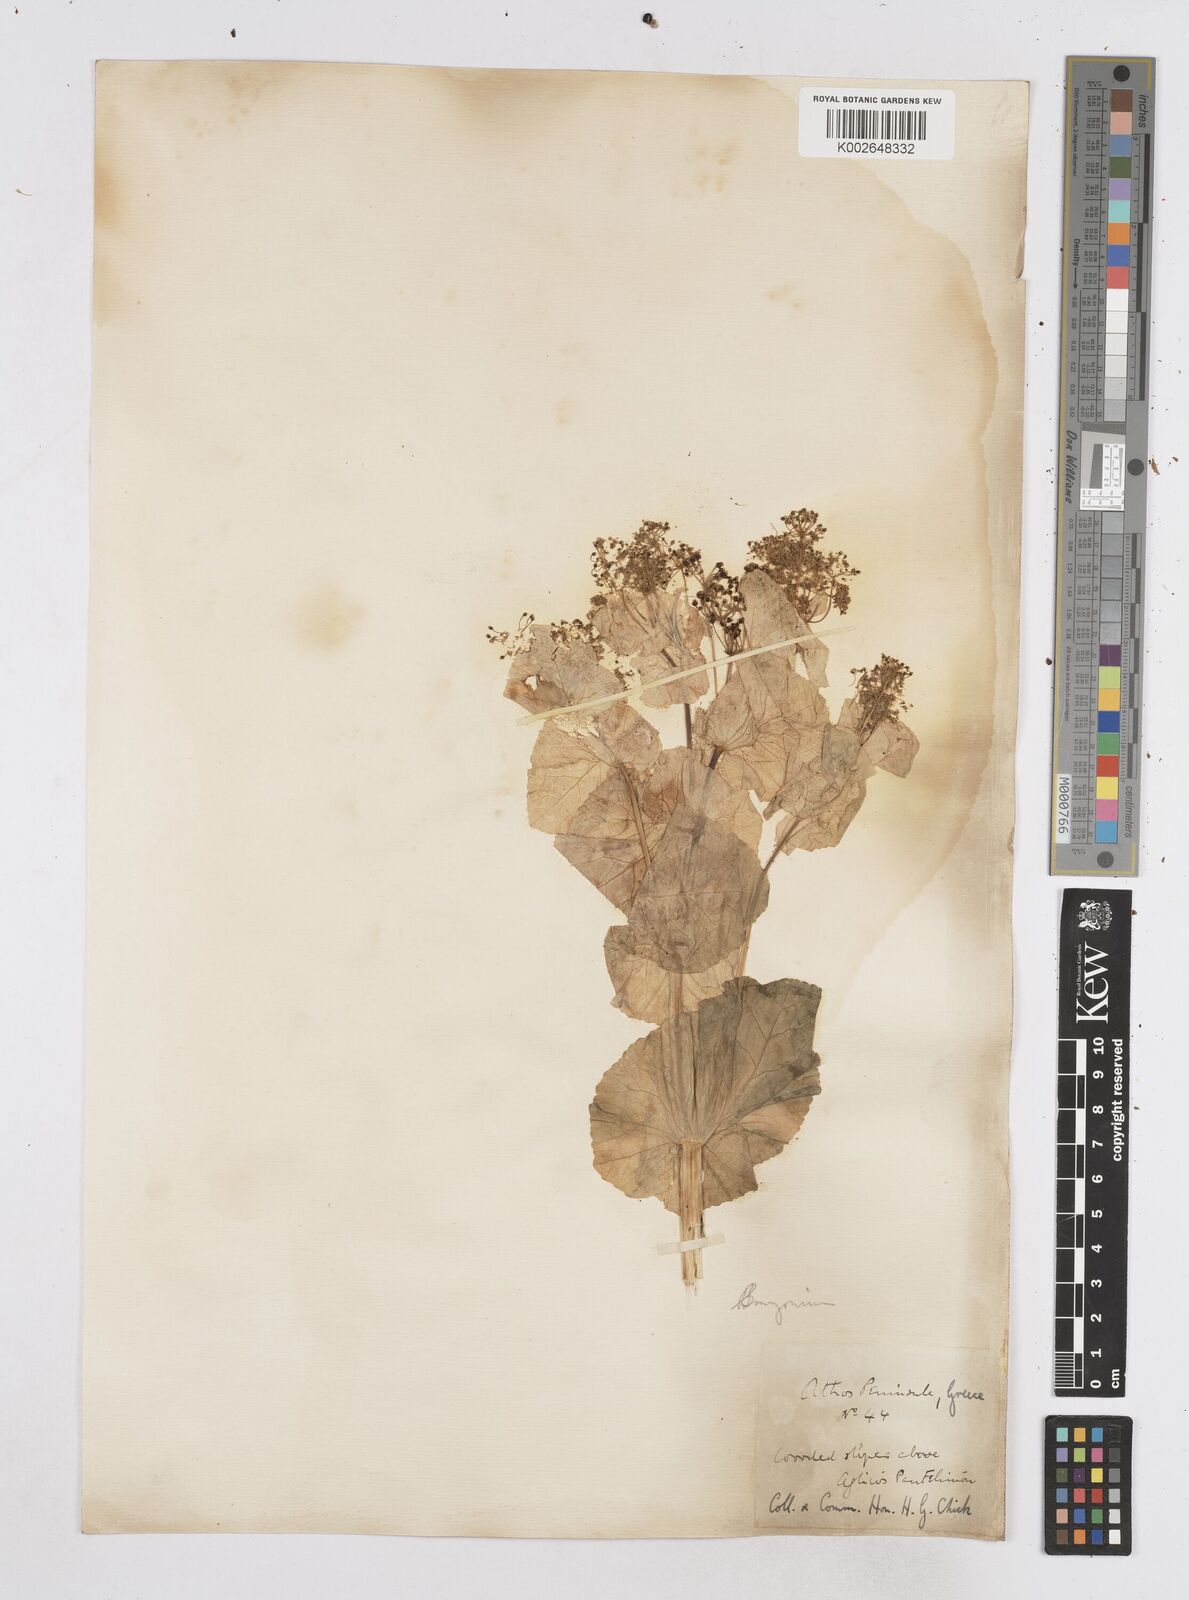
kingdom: Plantae
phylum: Tracheophyta
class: Magnoliopsida
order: Apiales
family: Apiaceae
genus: Smyrnium
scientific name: Smyrnium perfoliatum
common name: Perfoliate alexanders
